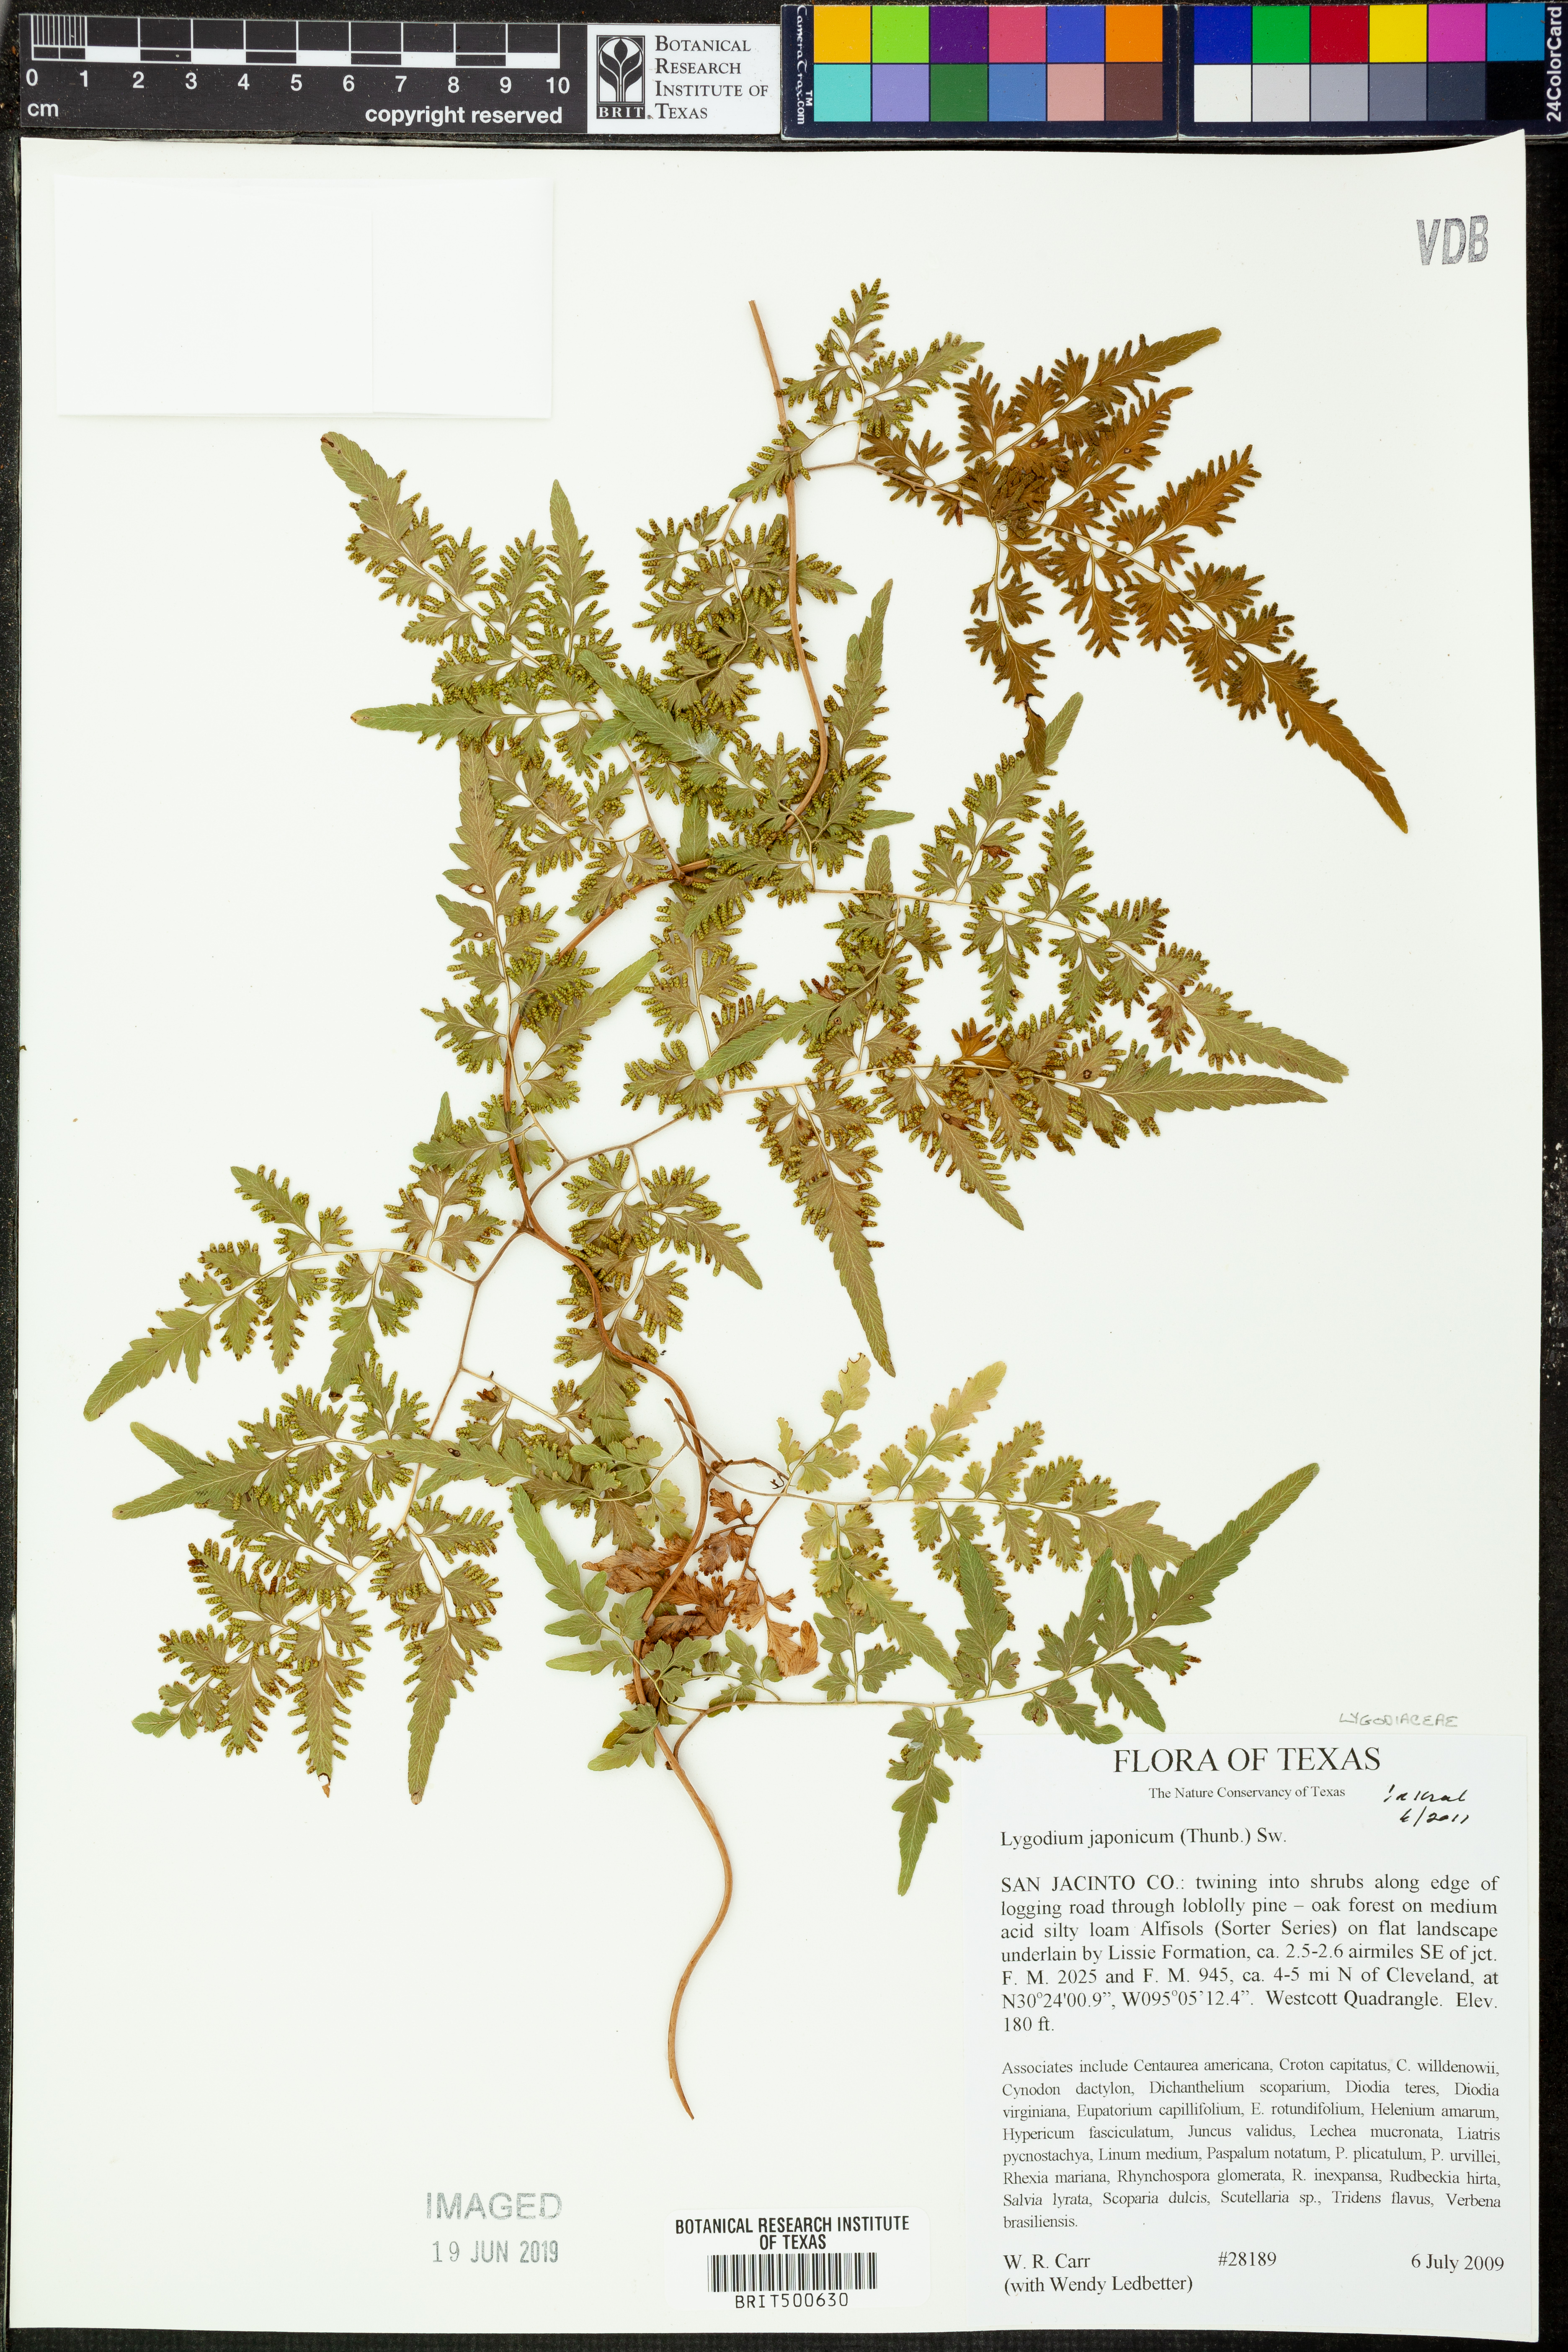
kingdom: Plantae
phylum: Tracheophyta
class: Polypodiopsida
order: Schizaeales
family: Lygodiaceae
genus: Lygodium
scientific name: Lygodium japonicum
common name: Japanese climbing fern
